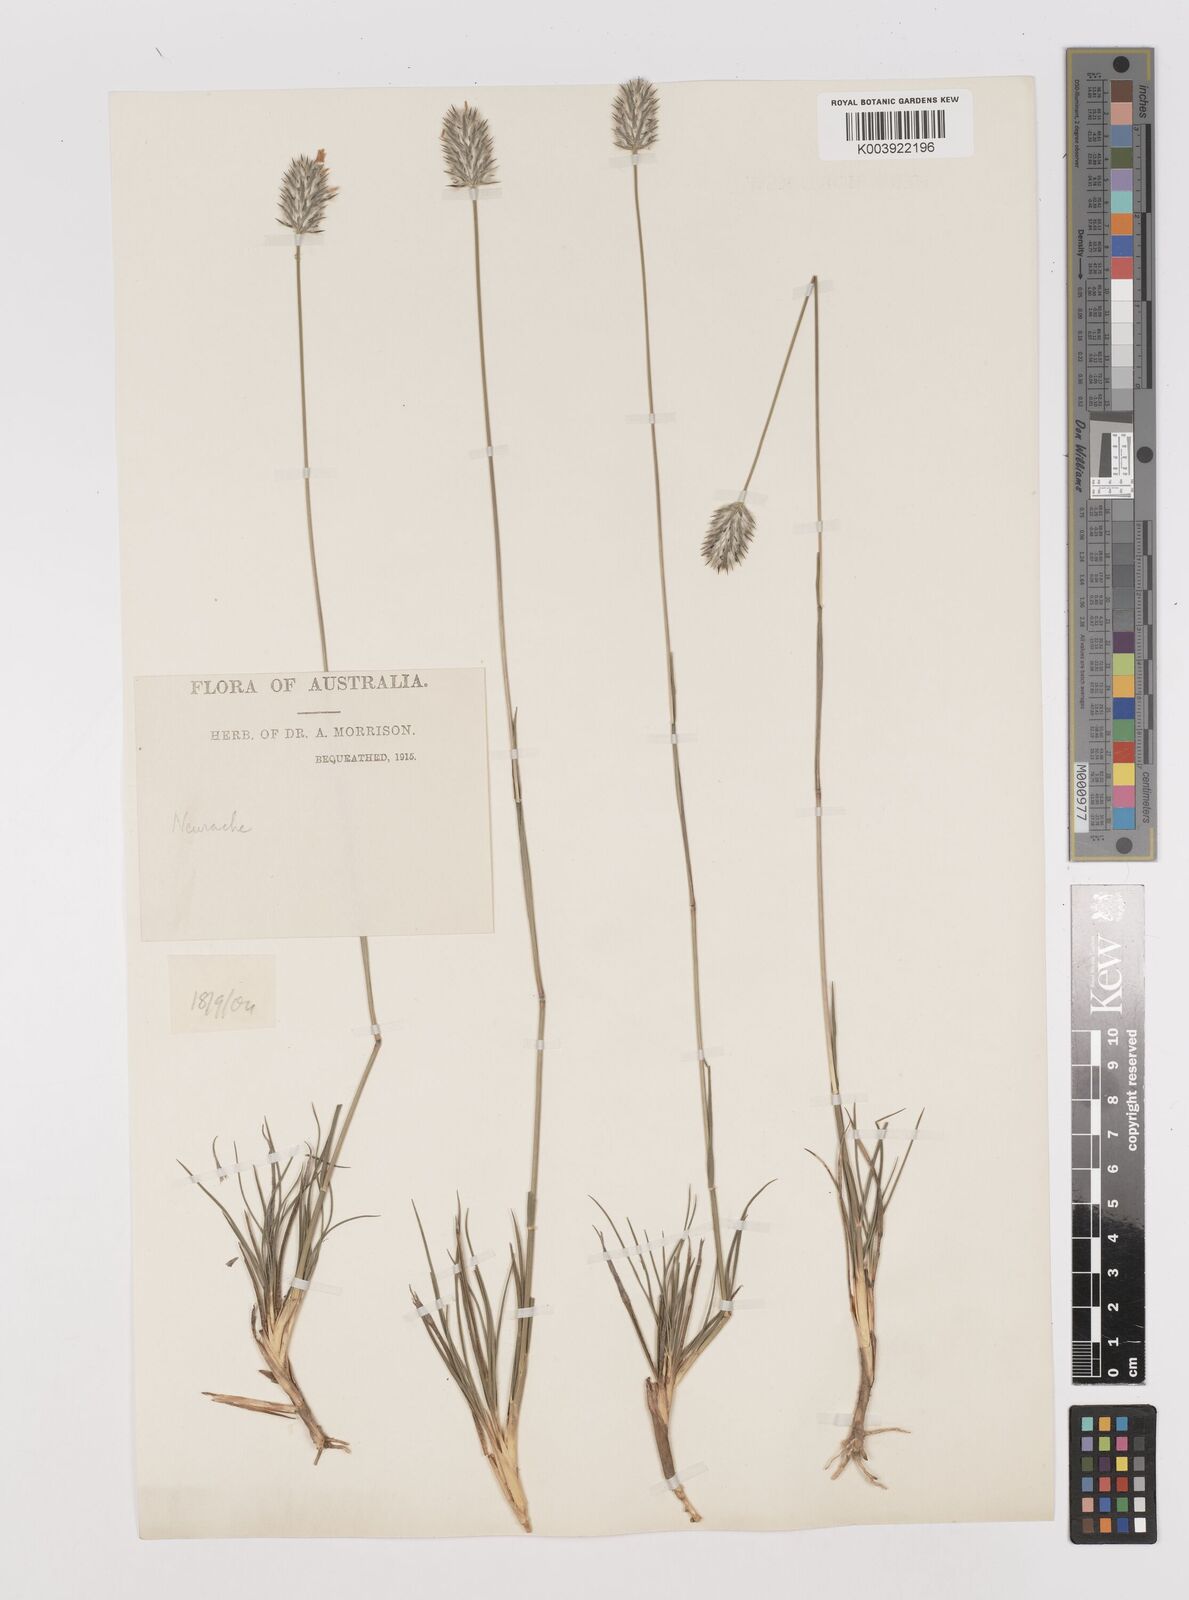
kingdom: Plantae
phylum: Tracheophyta
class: Liliopsida
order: Poales
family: Poaceae
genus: Neurachne
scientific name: Neurachne alopecuroidea
